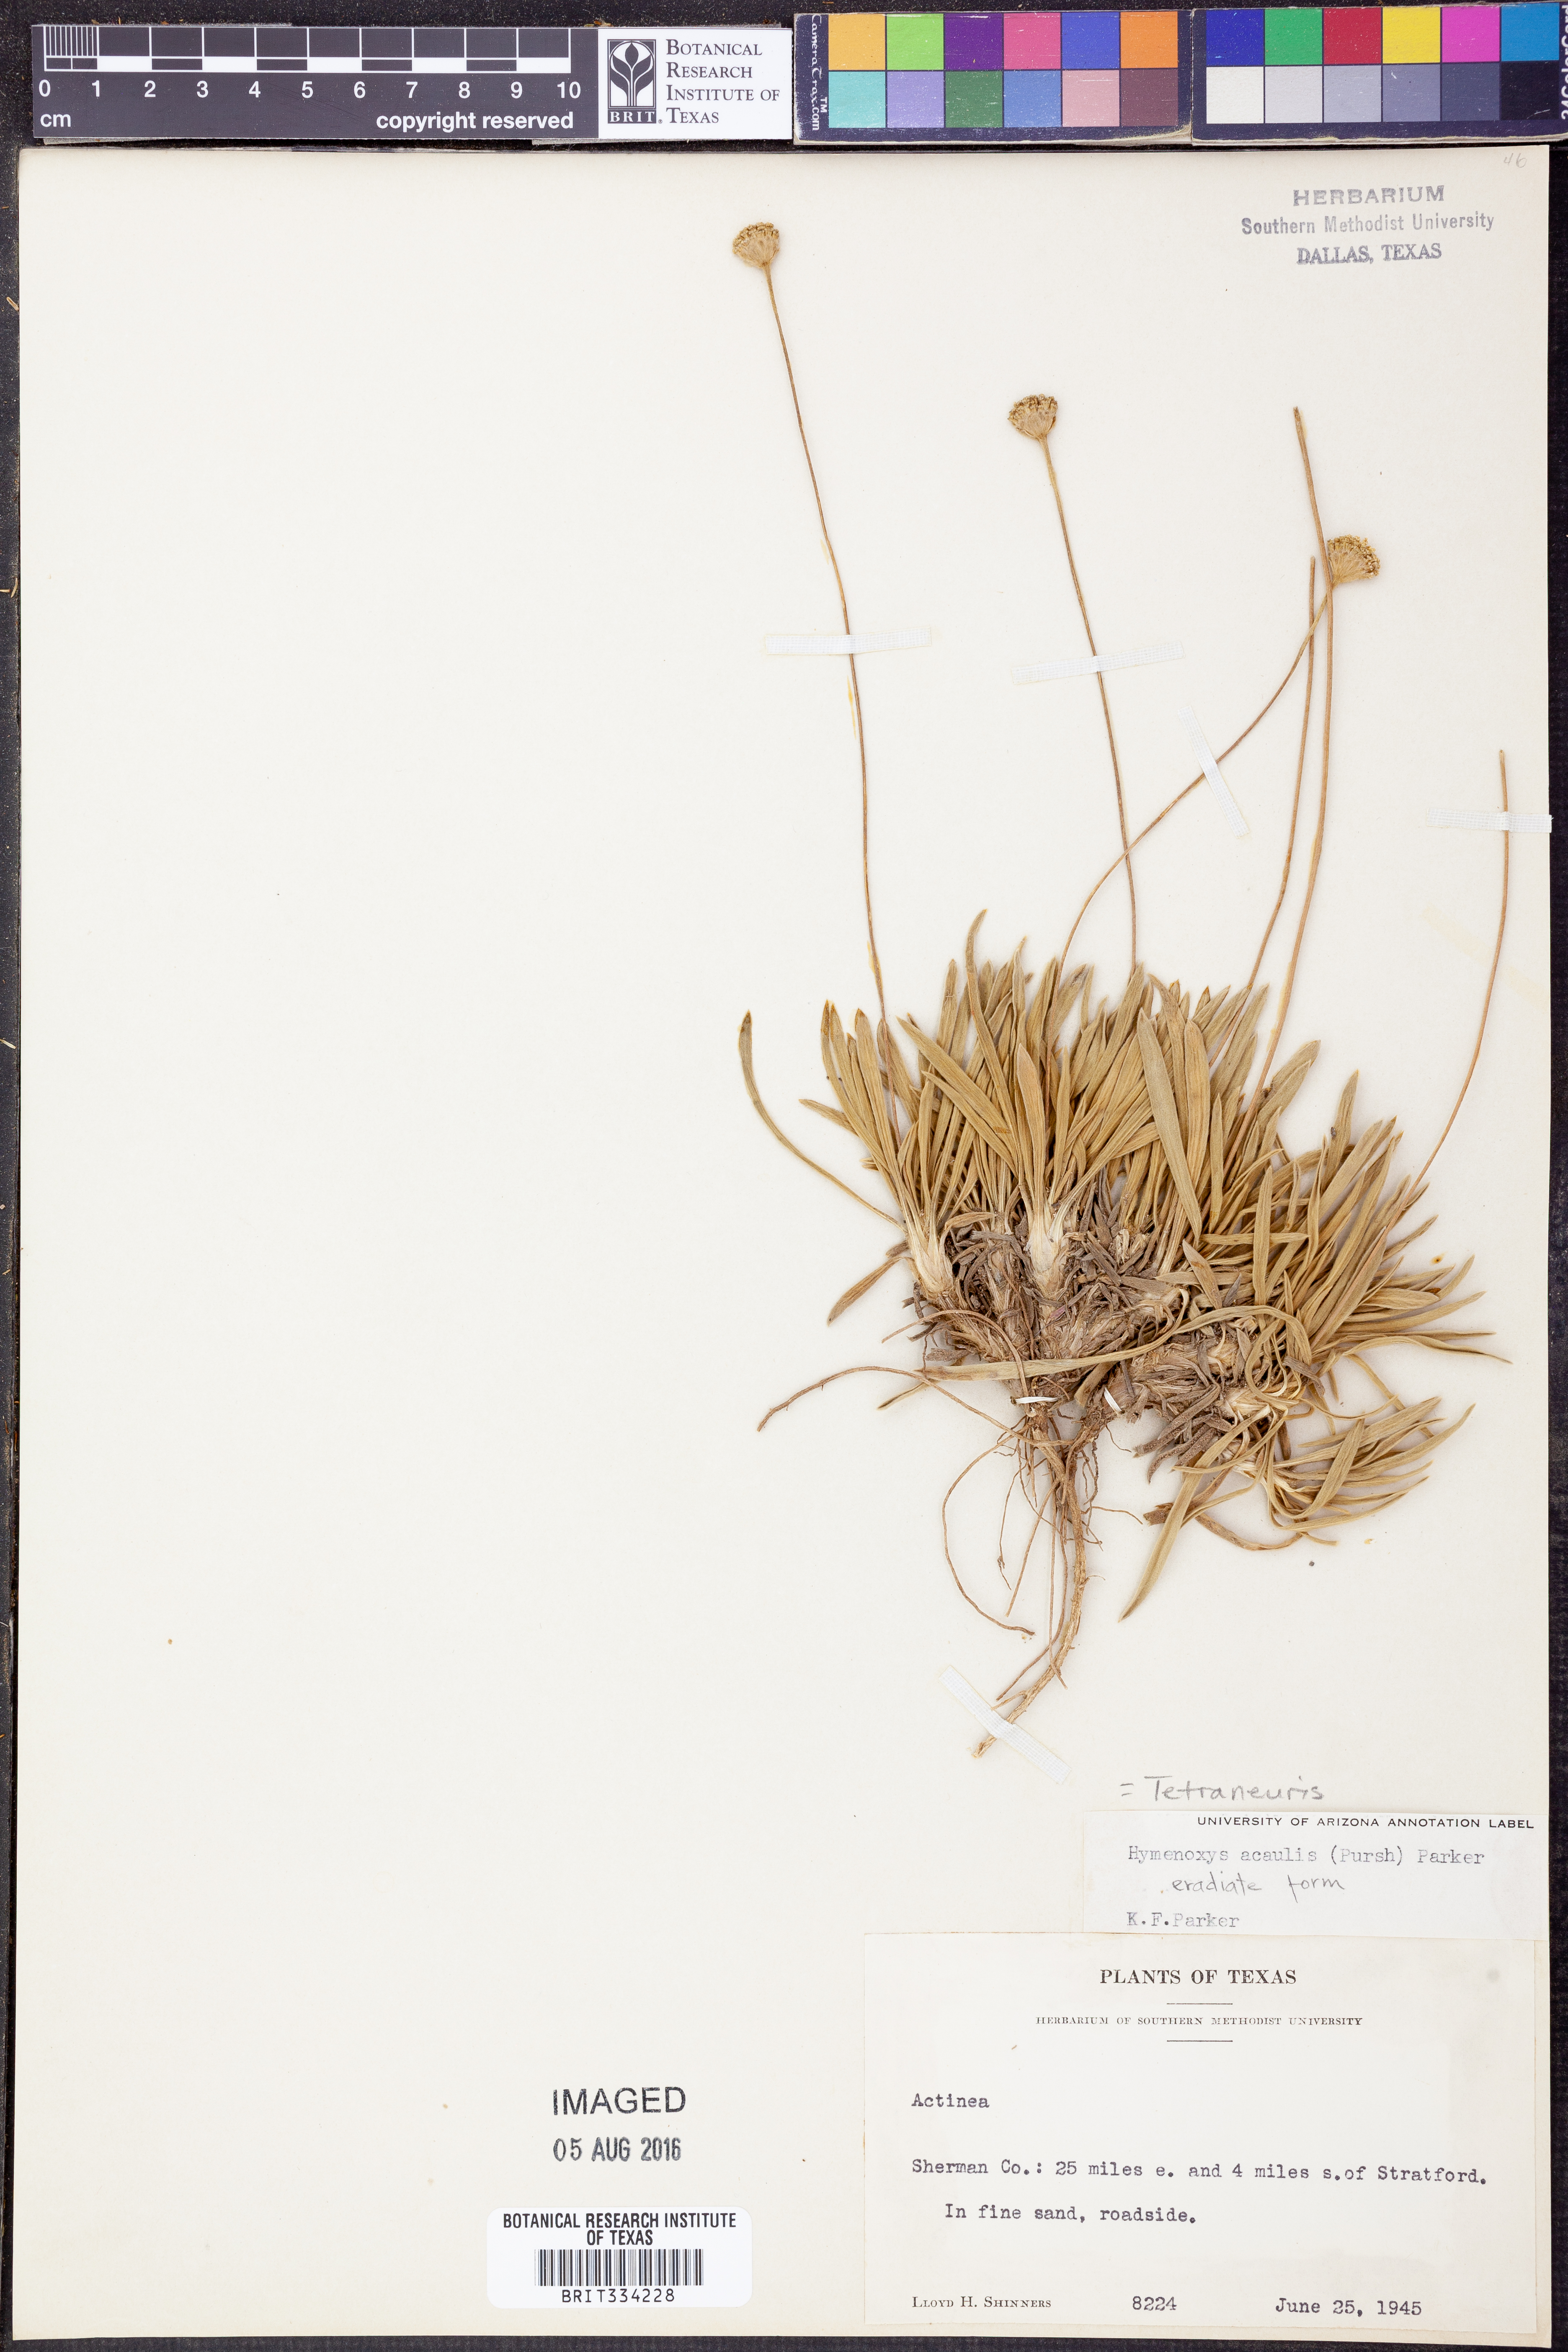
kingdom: Plantae
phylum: Tracheophyta
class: Magnoliopsida
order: Asterales
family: Asteraceae
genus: Tetraneuris
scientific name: Tetraneuris acaulis
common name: Butte marigold
